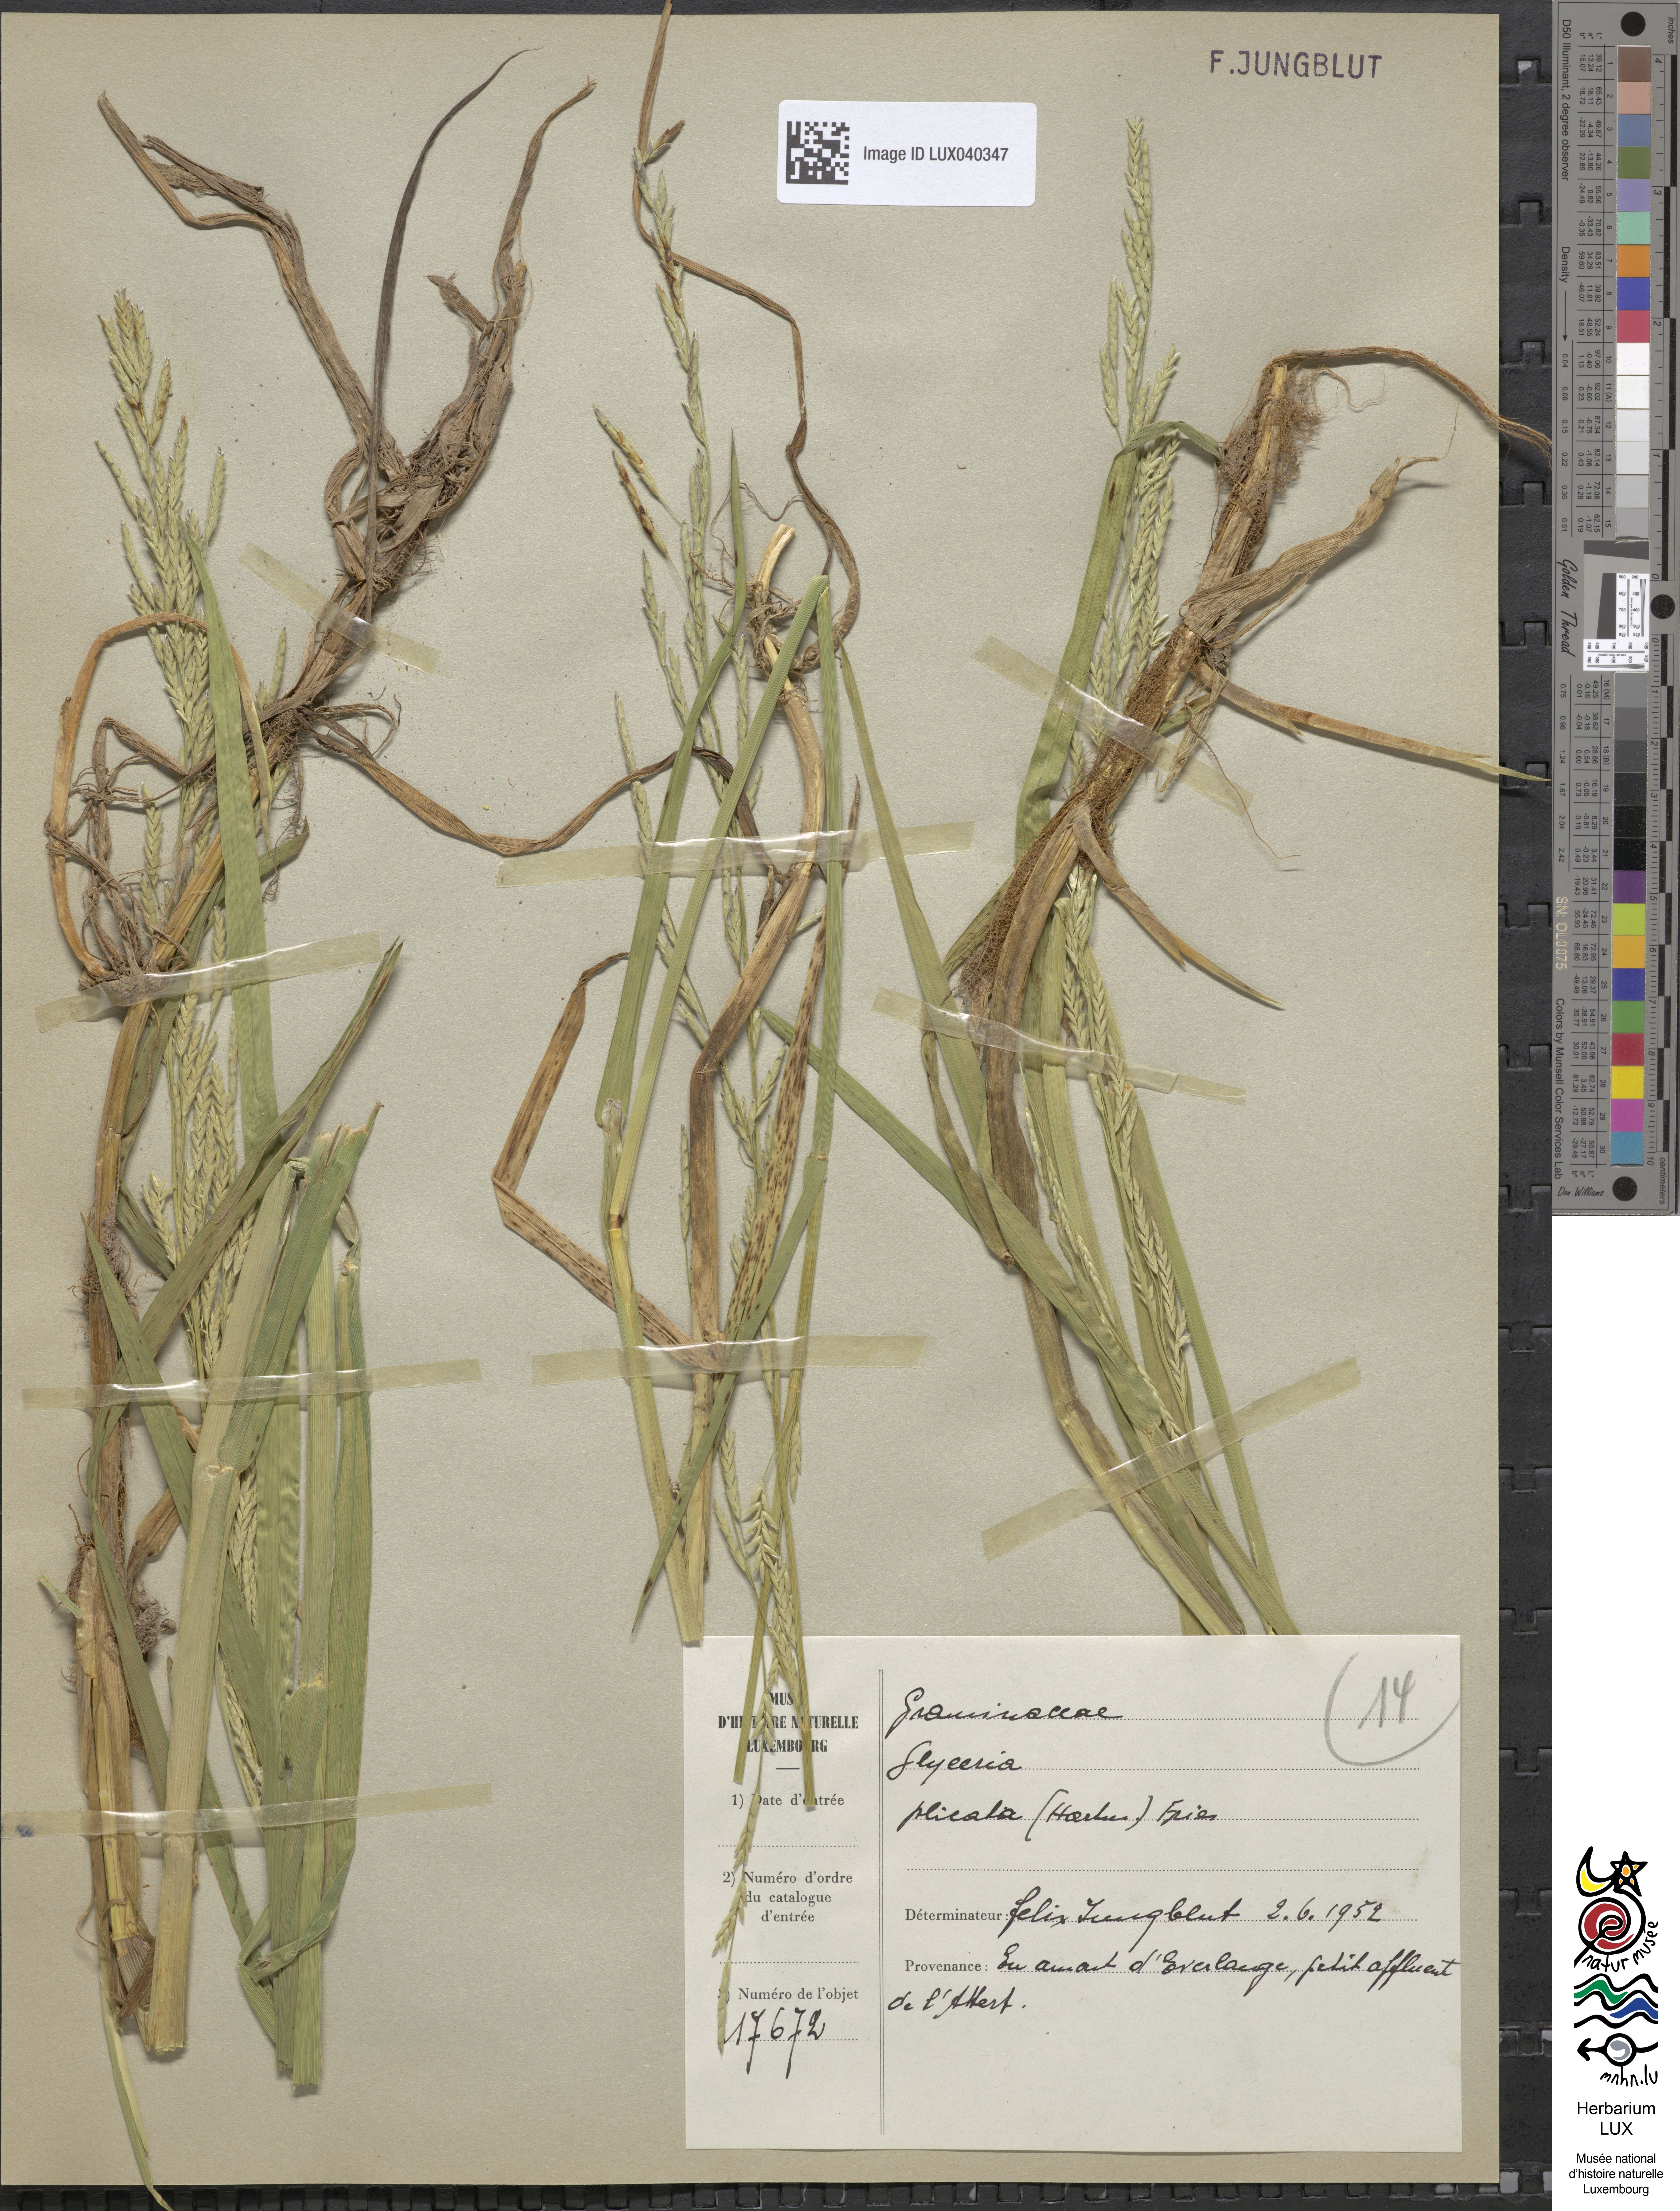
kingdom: Plantae
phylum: Tracheophyta
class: Liliopsida
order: Poales
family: Poaceae
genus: Glyceria
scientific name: Glyceria notata
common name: Plicate sweet-grass
